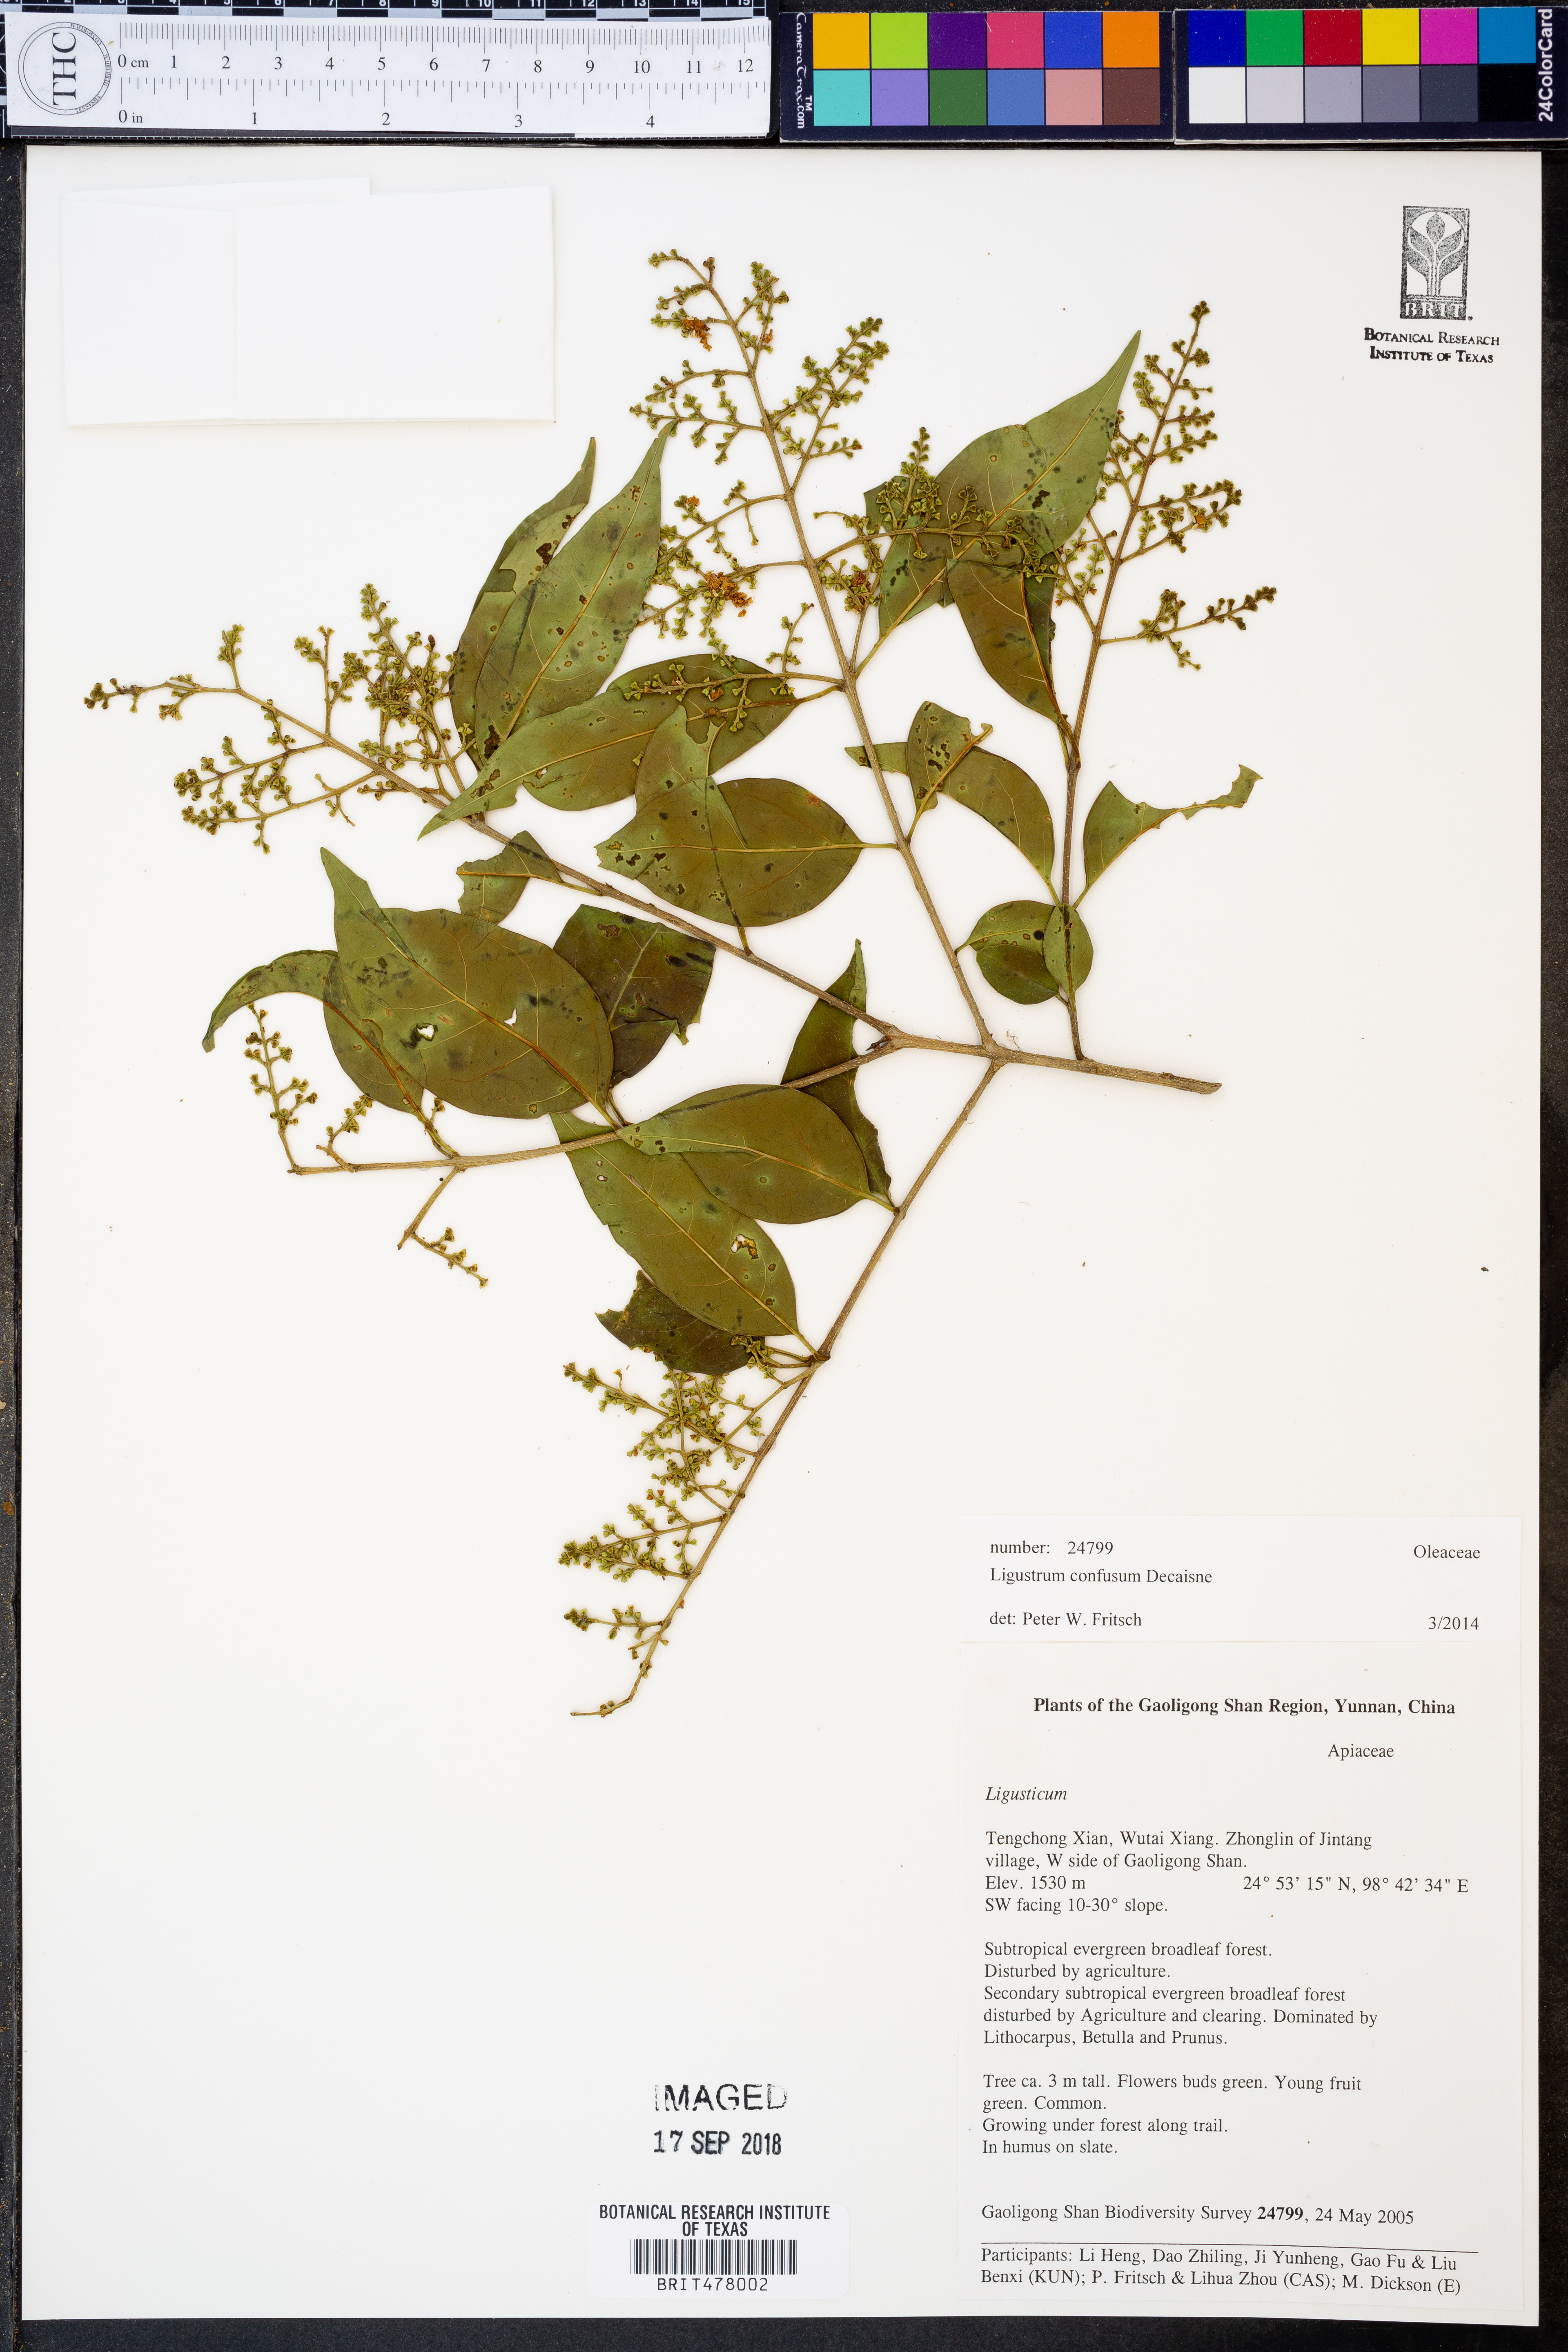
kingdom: Plantae
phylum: Tracheophyta
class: Magnoliopsida
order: Lamiales
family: Oleaceae
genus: Ligustrum
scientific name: Ligustrum confusum
